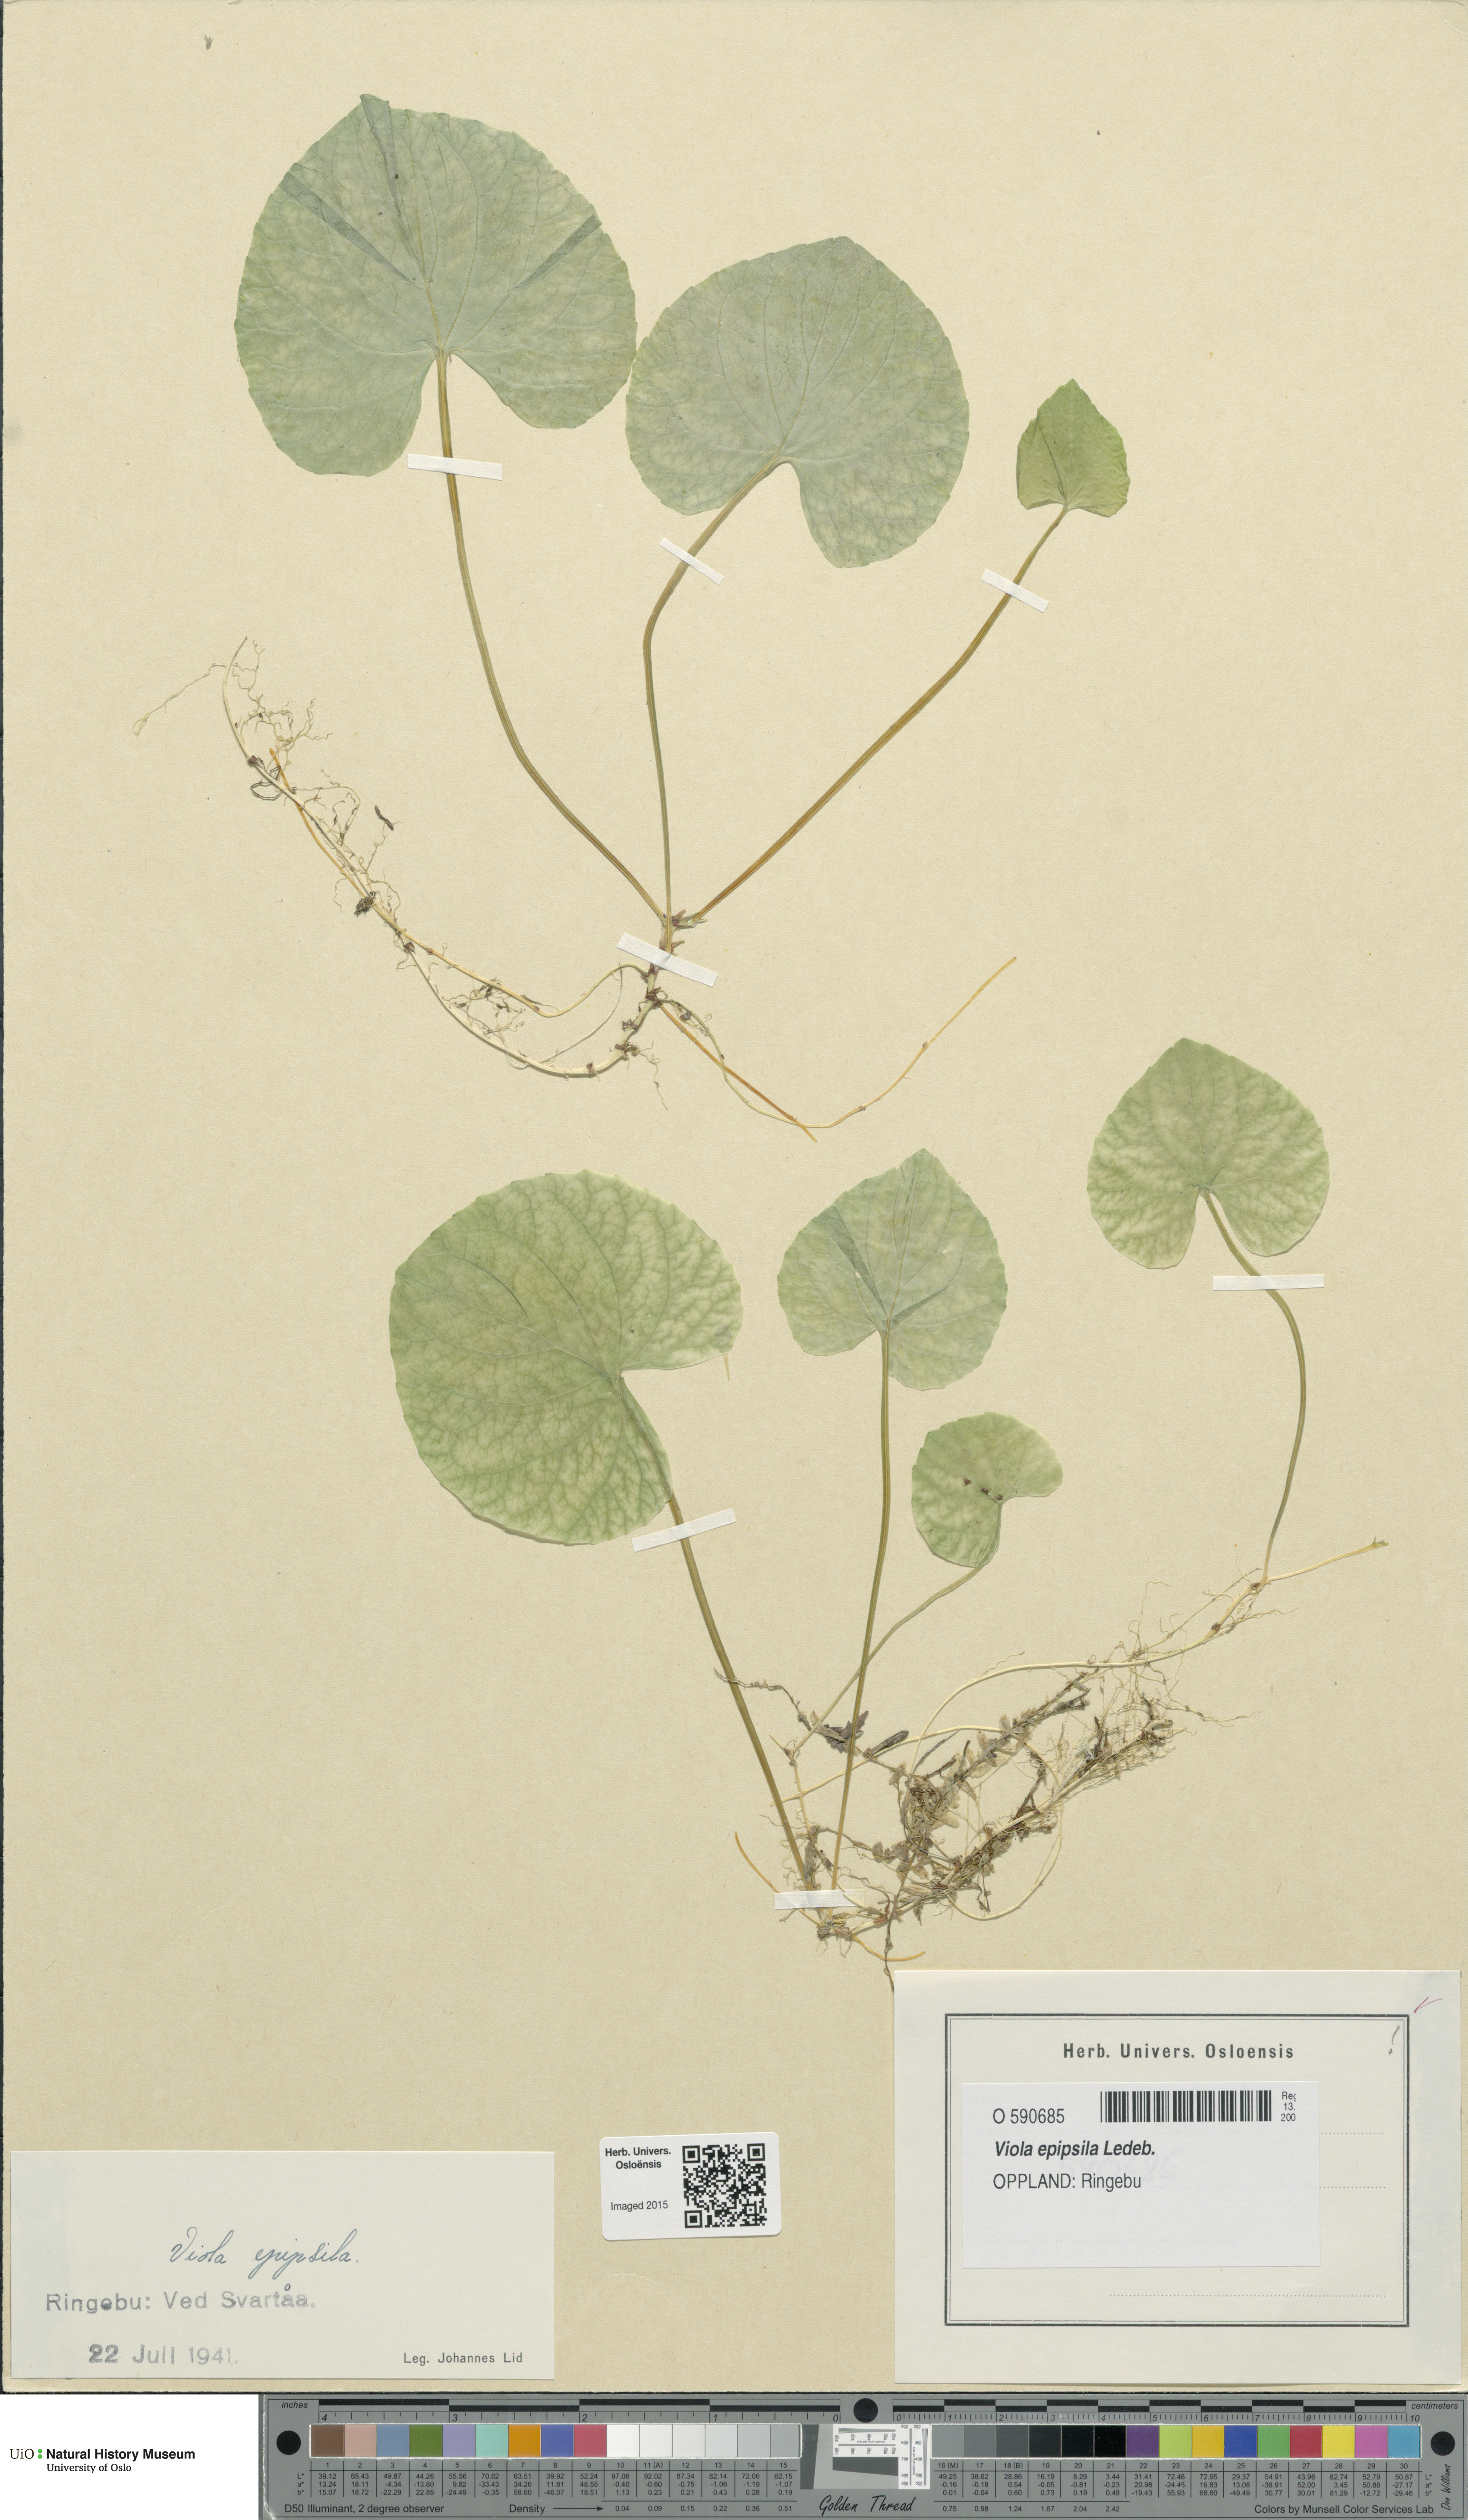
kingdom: Plantae
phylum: Tracheophyta
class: Magnoliopsida
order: Malpighiales
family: Violaceae
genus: Viola
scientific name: Viola epipsila
